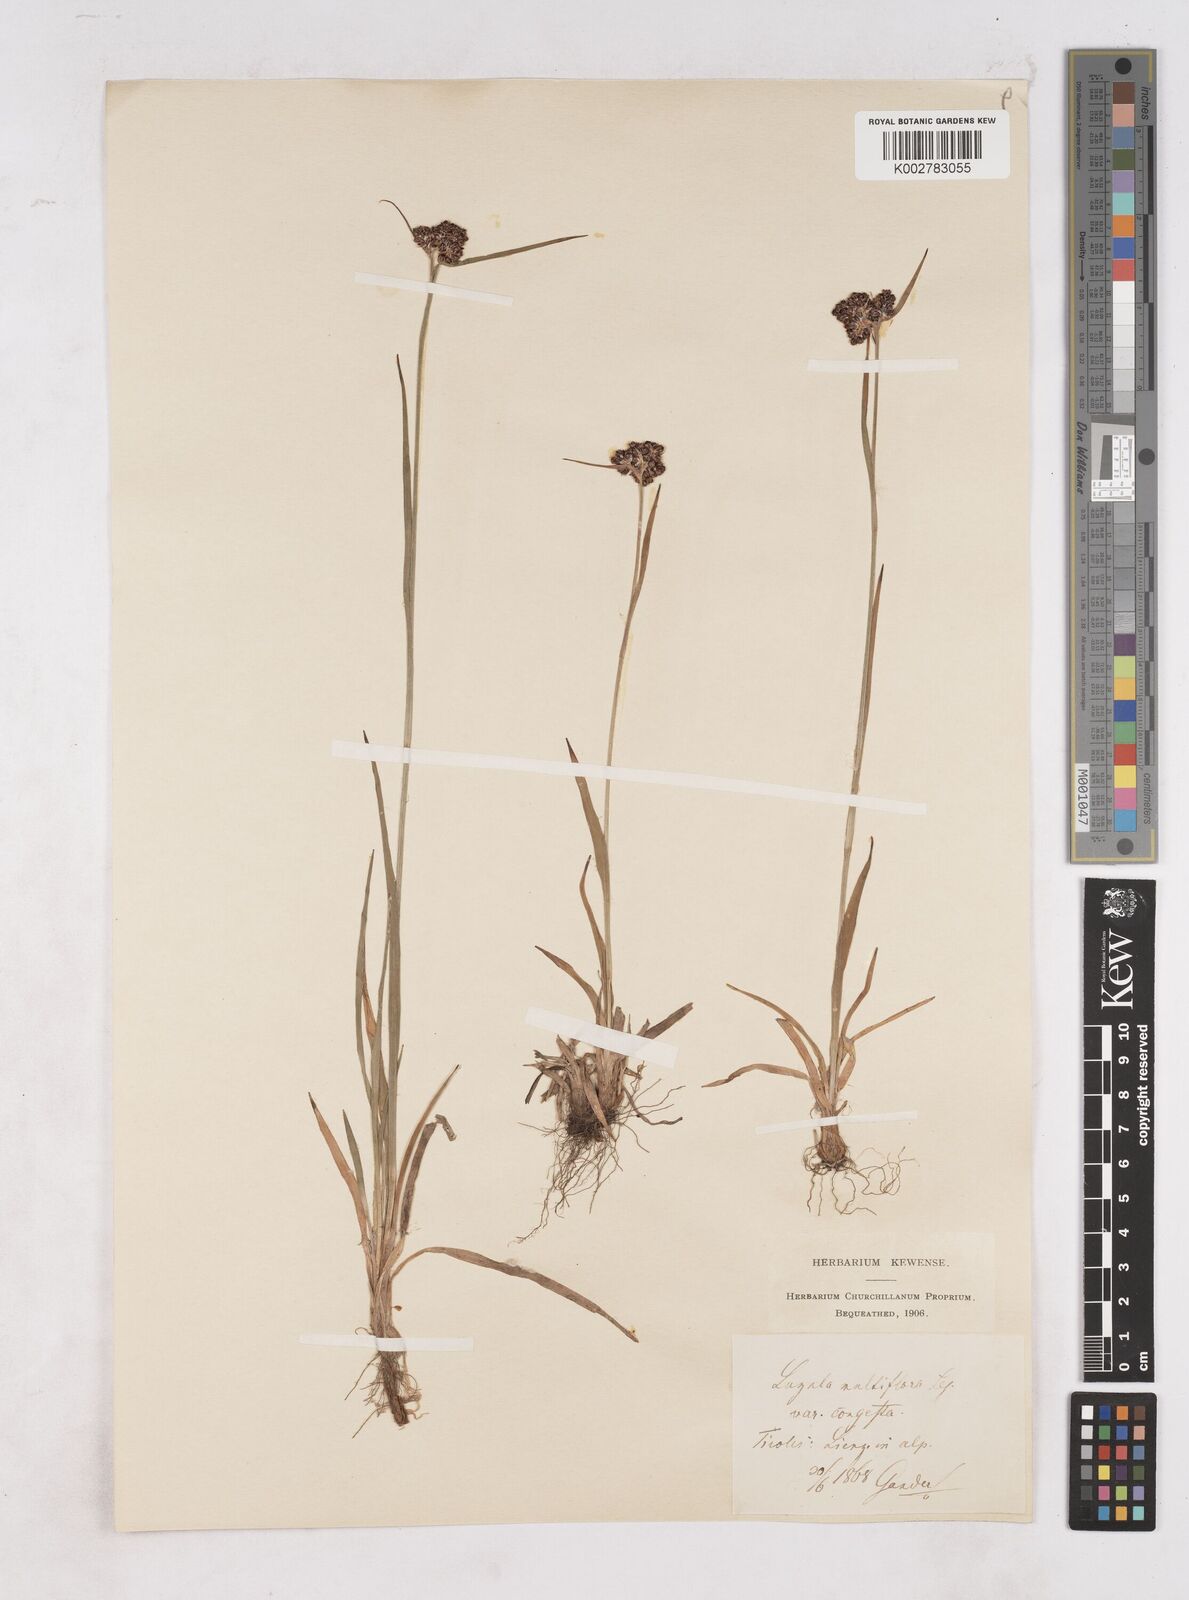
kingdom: Plantae
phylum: Tracheophyta
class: Liliopsida
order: Poales
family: Juncaceae
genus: Luzula
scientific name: Luzula campestris
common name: Field wood-rush
